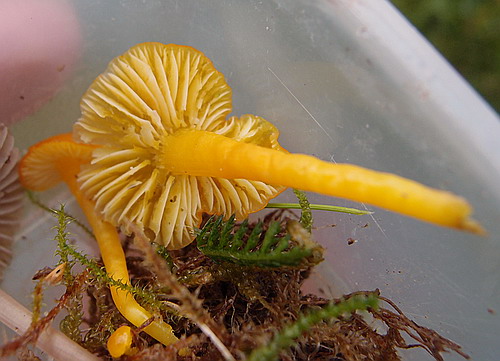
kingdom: Fungi
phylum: Basidiomycota
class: Agaricomycetes
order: Agaricales
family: Hygrophoraceae
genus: Hygrocybe
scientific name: Hygrocybe chlorophana
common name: gul vokshat
